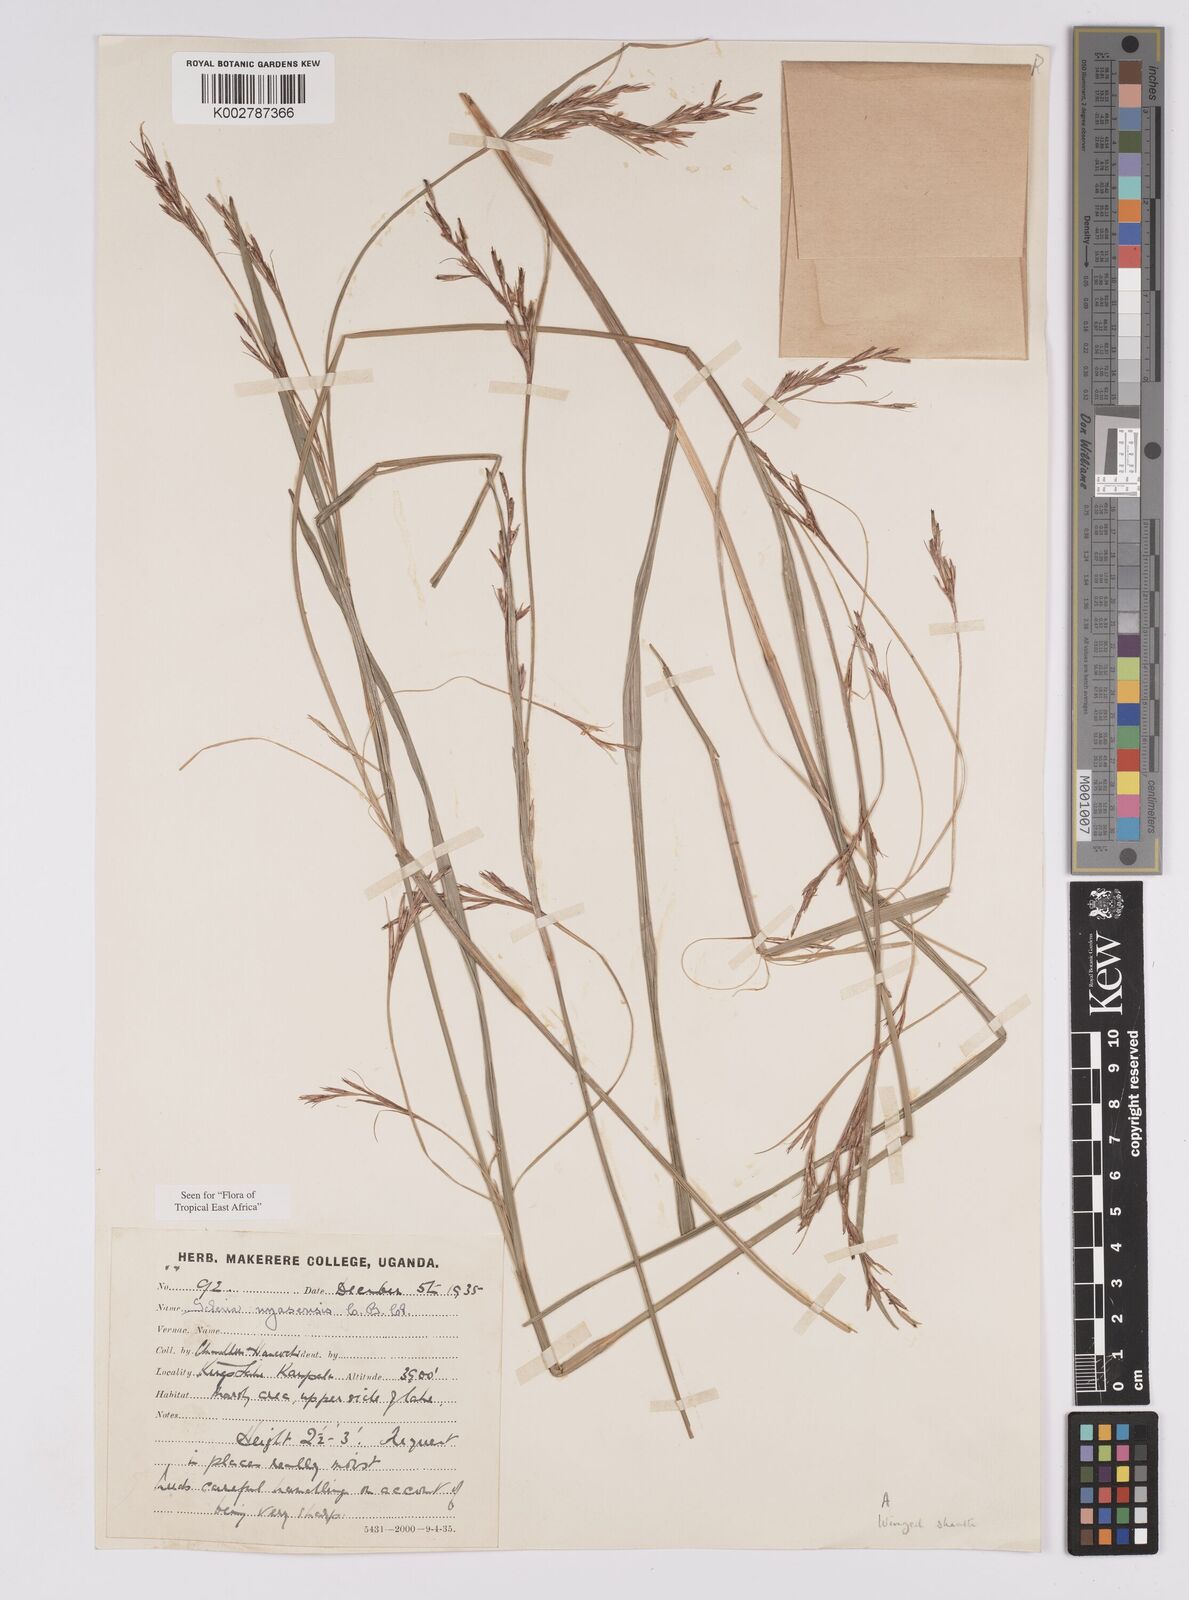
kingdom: Plantae
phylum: Tracheophyta
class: Liliopsida
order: Poales
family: Cyperaceae
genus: Scleria
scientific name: Scleria nyasensis
